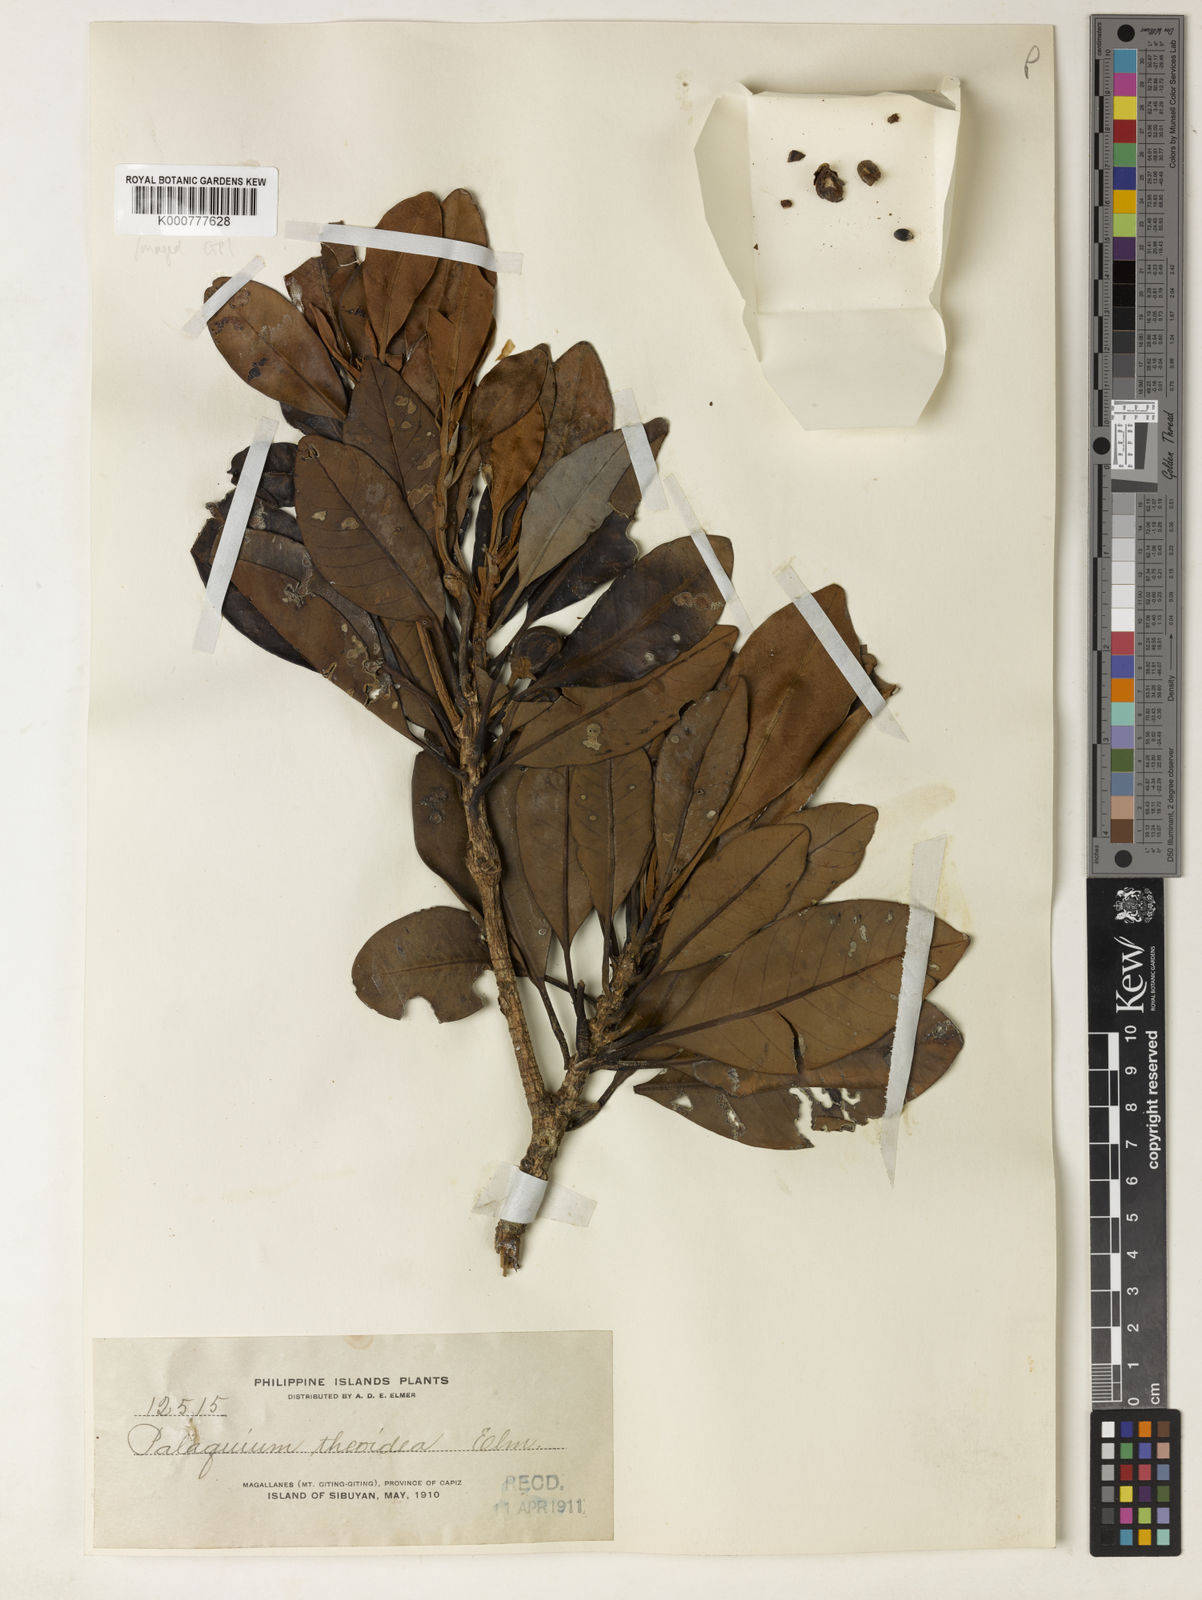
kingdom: Plantae
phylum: Tracheophyta
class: Magnoliopsida
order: Ericales
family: Sapotaceae
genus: Palaquium
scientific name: Palaquium obovatum
